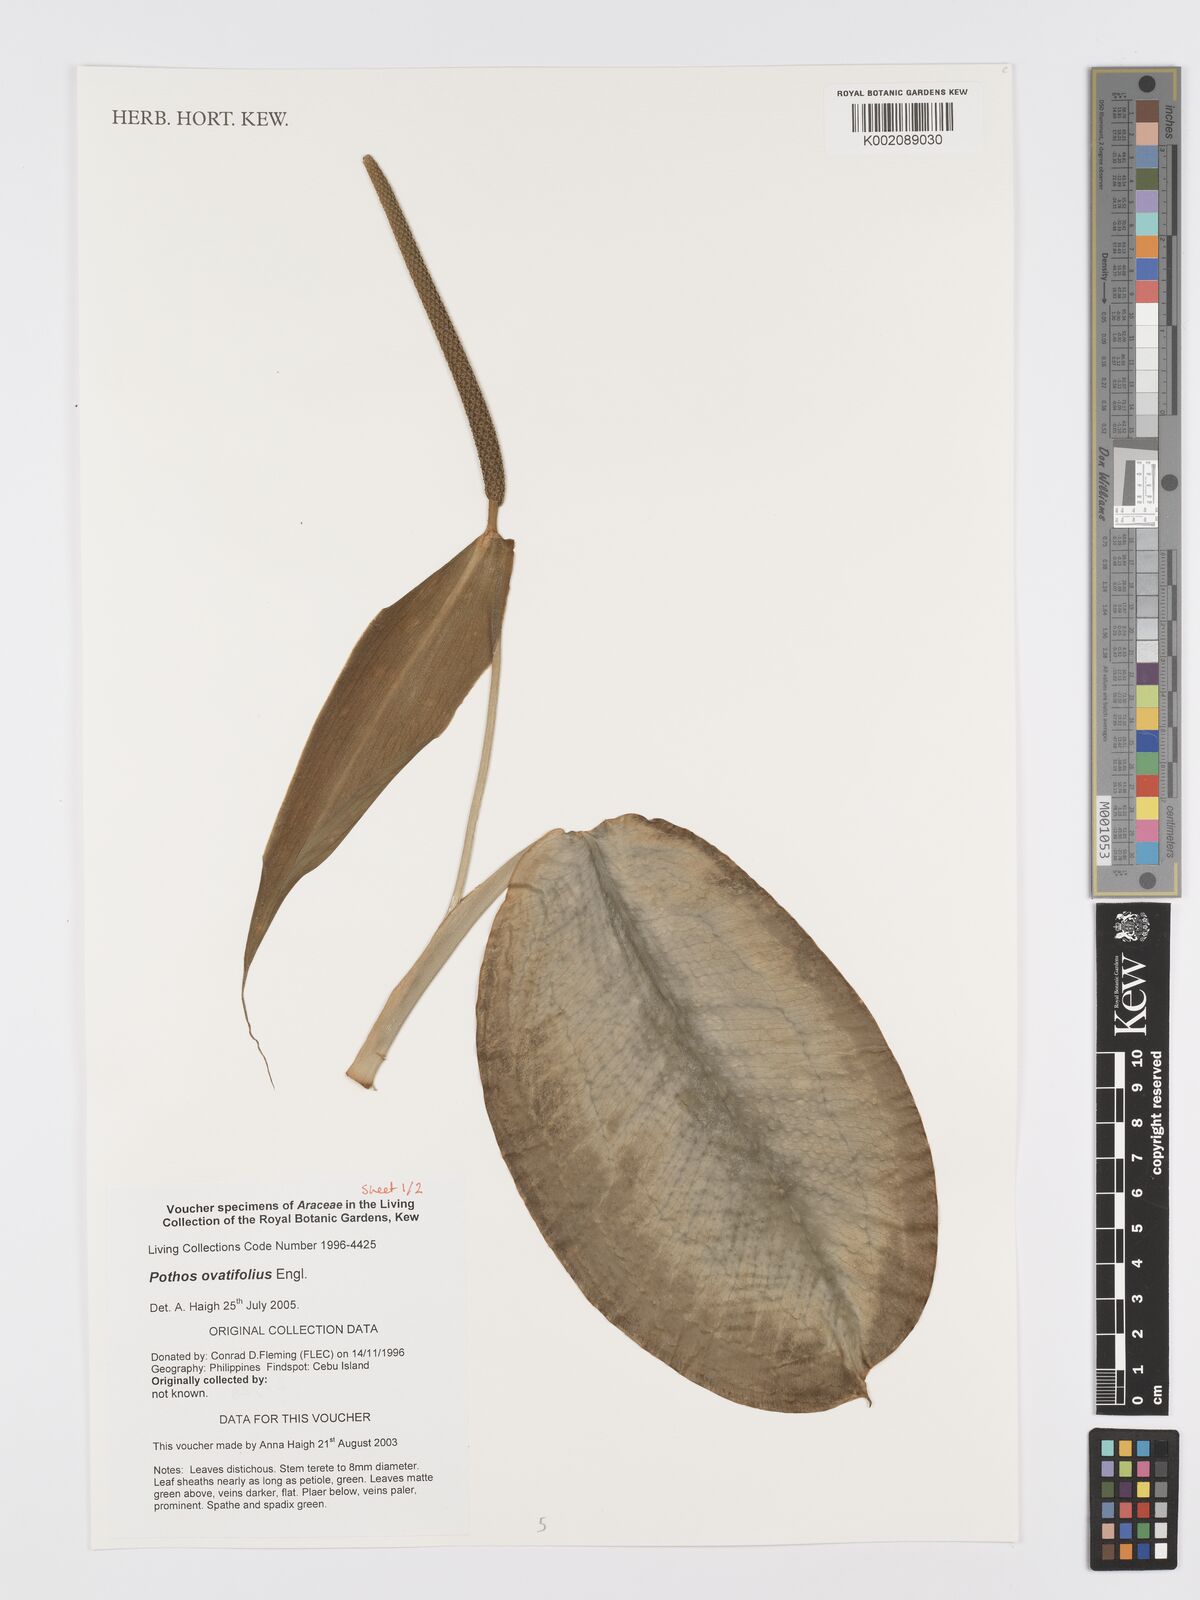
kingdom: Plantae
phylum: Tracheophyta
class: Liliopsida
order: Alismatales
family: Araceae
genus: Pothos
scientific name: Pothos ovatifolius
